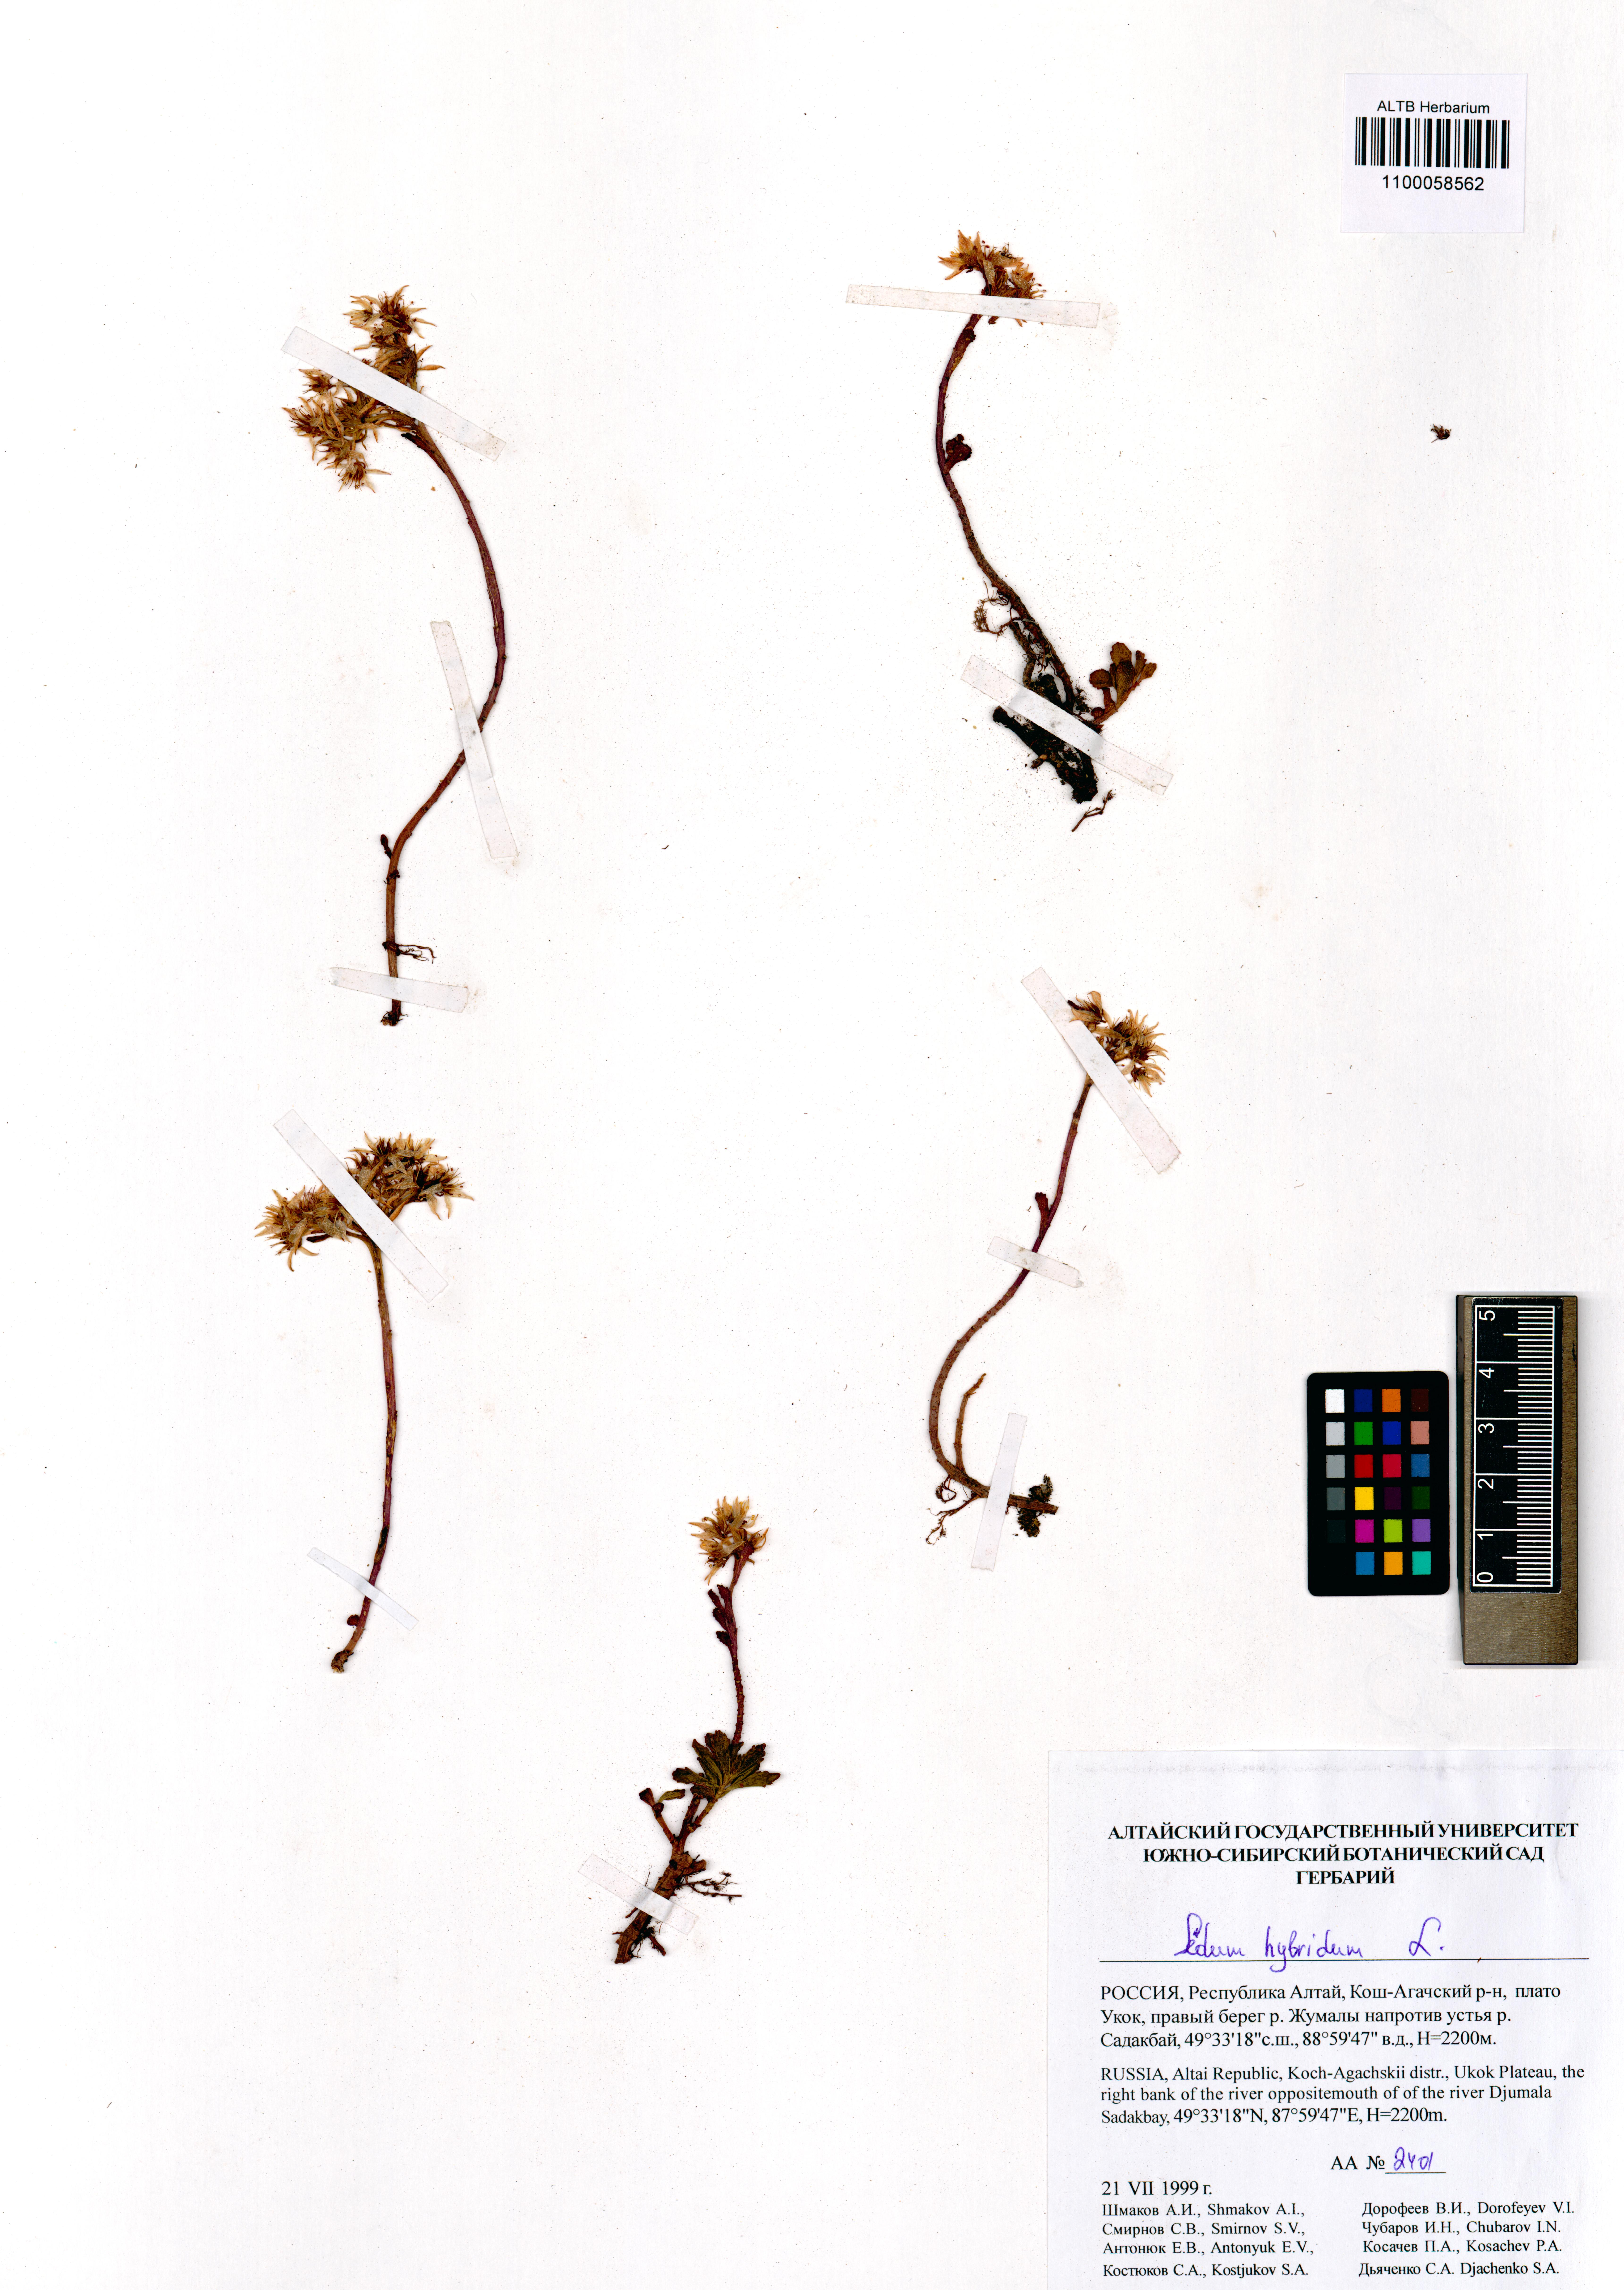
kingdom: Plantae
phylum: Tracheophyta
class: Magnoliopsida
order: Saxifragales
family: Crassulaceae
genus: Phedimus
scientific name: Phedimus hybridus
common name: Hybrid stonecrop
